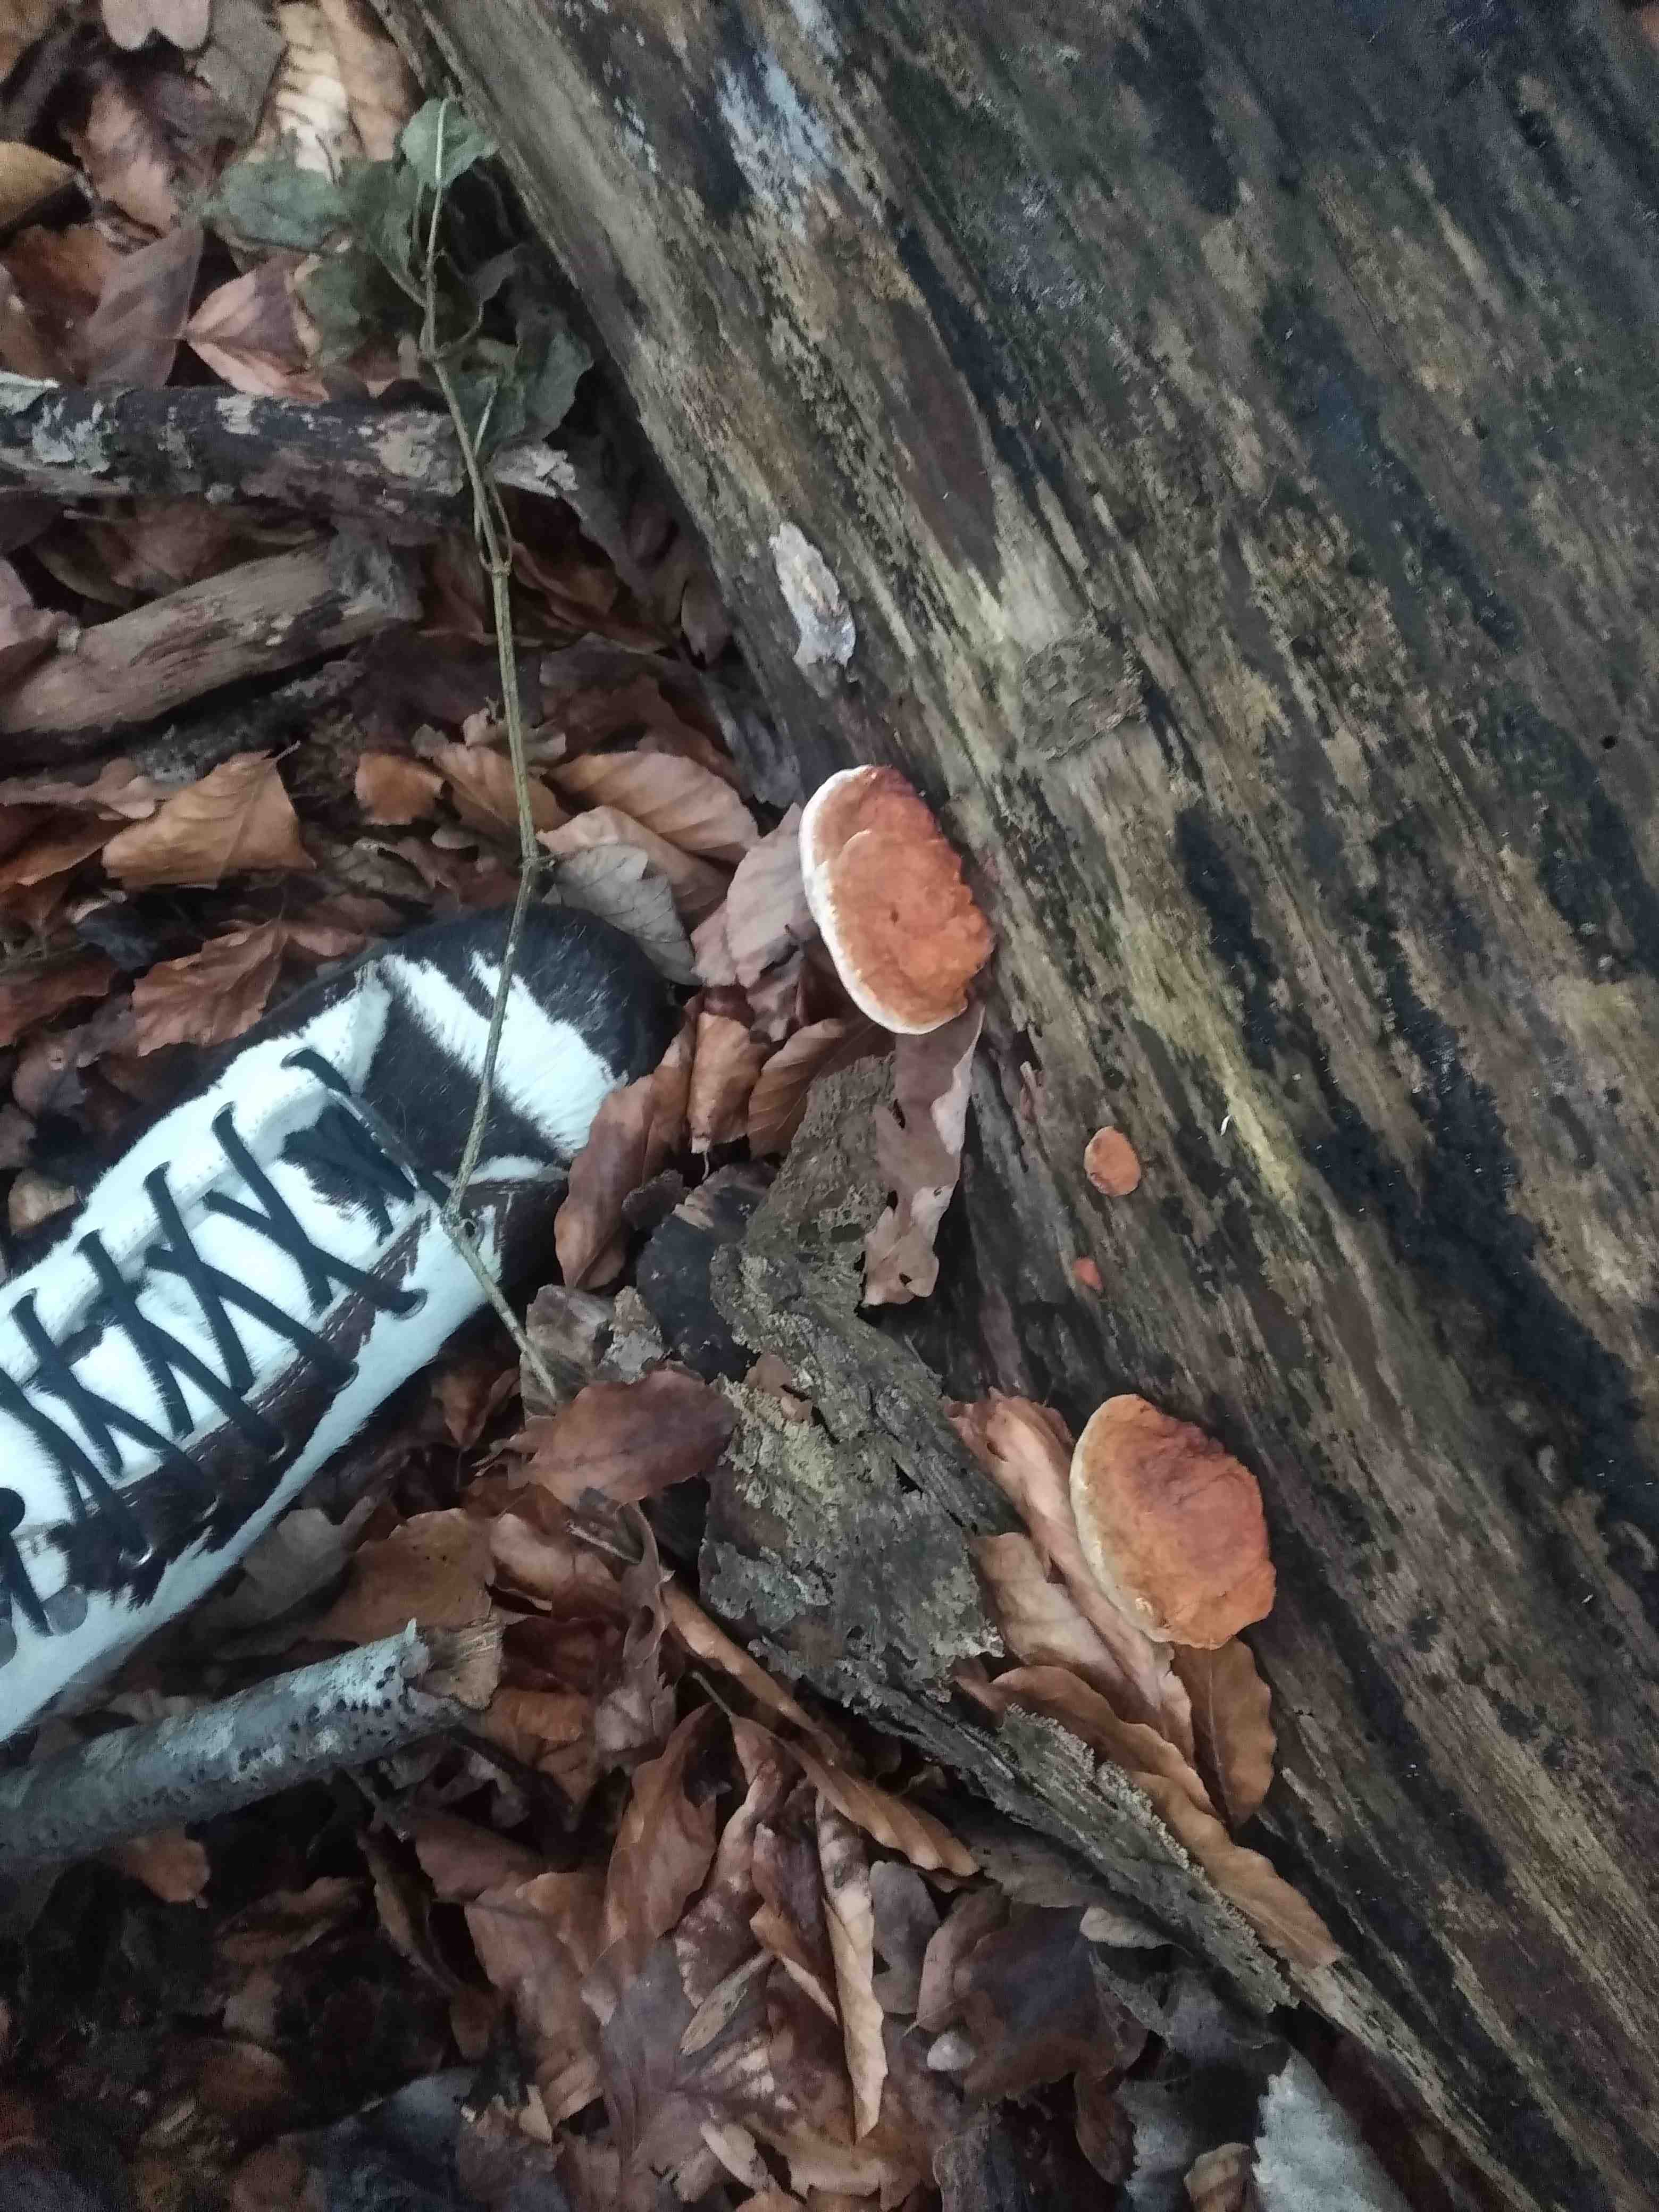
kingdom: Fungi
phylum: Basidiomycota
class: Agaricomycetes
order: Polyporales
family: Fomitopsidaceae
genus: Fomitopsis
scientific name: Fomitopsis pinicola
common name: randbæltet hovporesvamp
